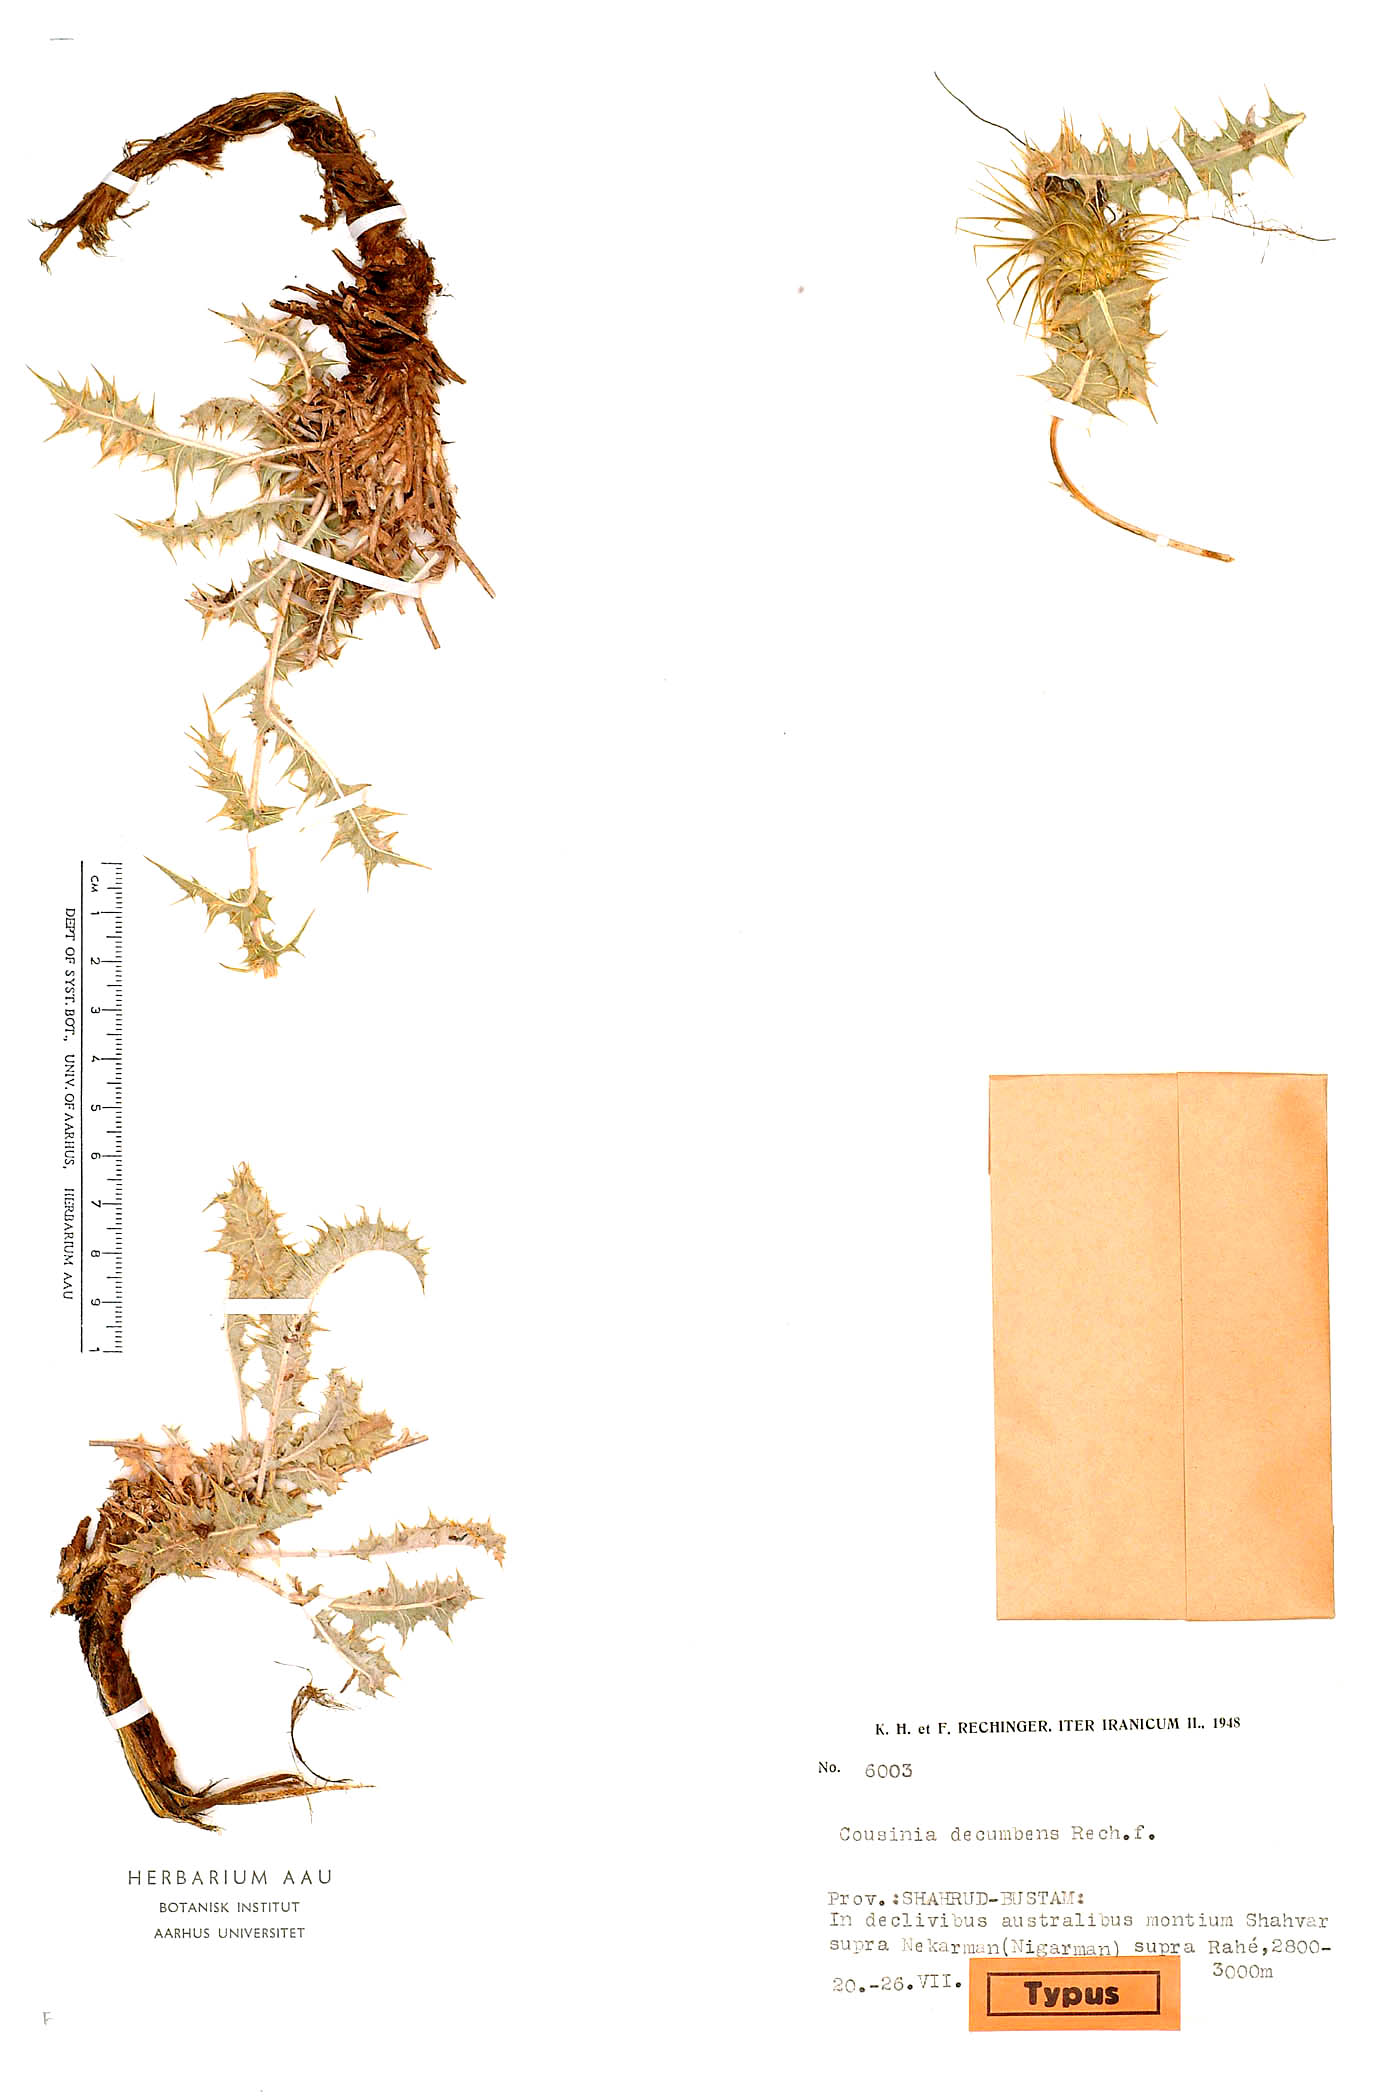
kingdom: Plantae
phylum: Tracheophyta
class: Magnoliopsida
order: Asterales
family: Asteraceae
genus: Cousinia
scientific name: Cousinia decumbens
